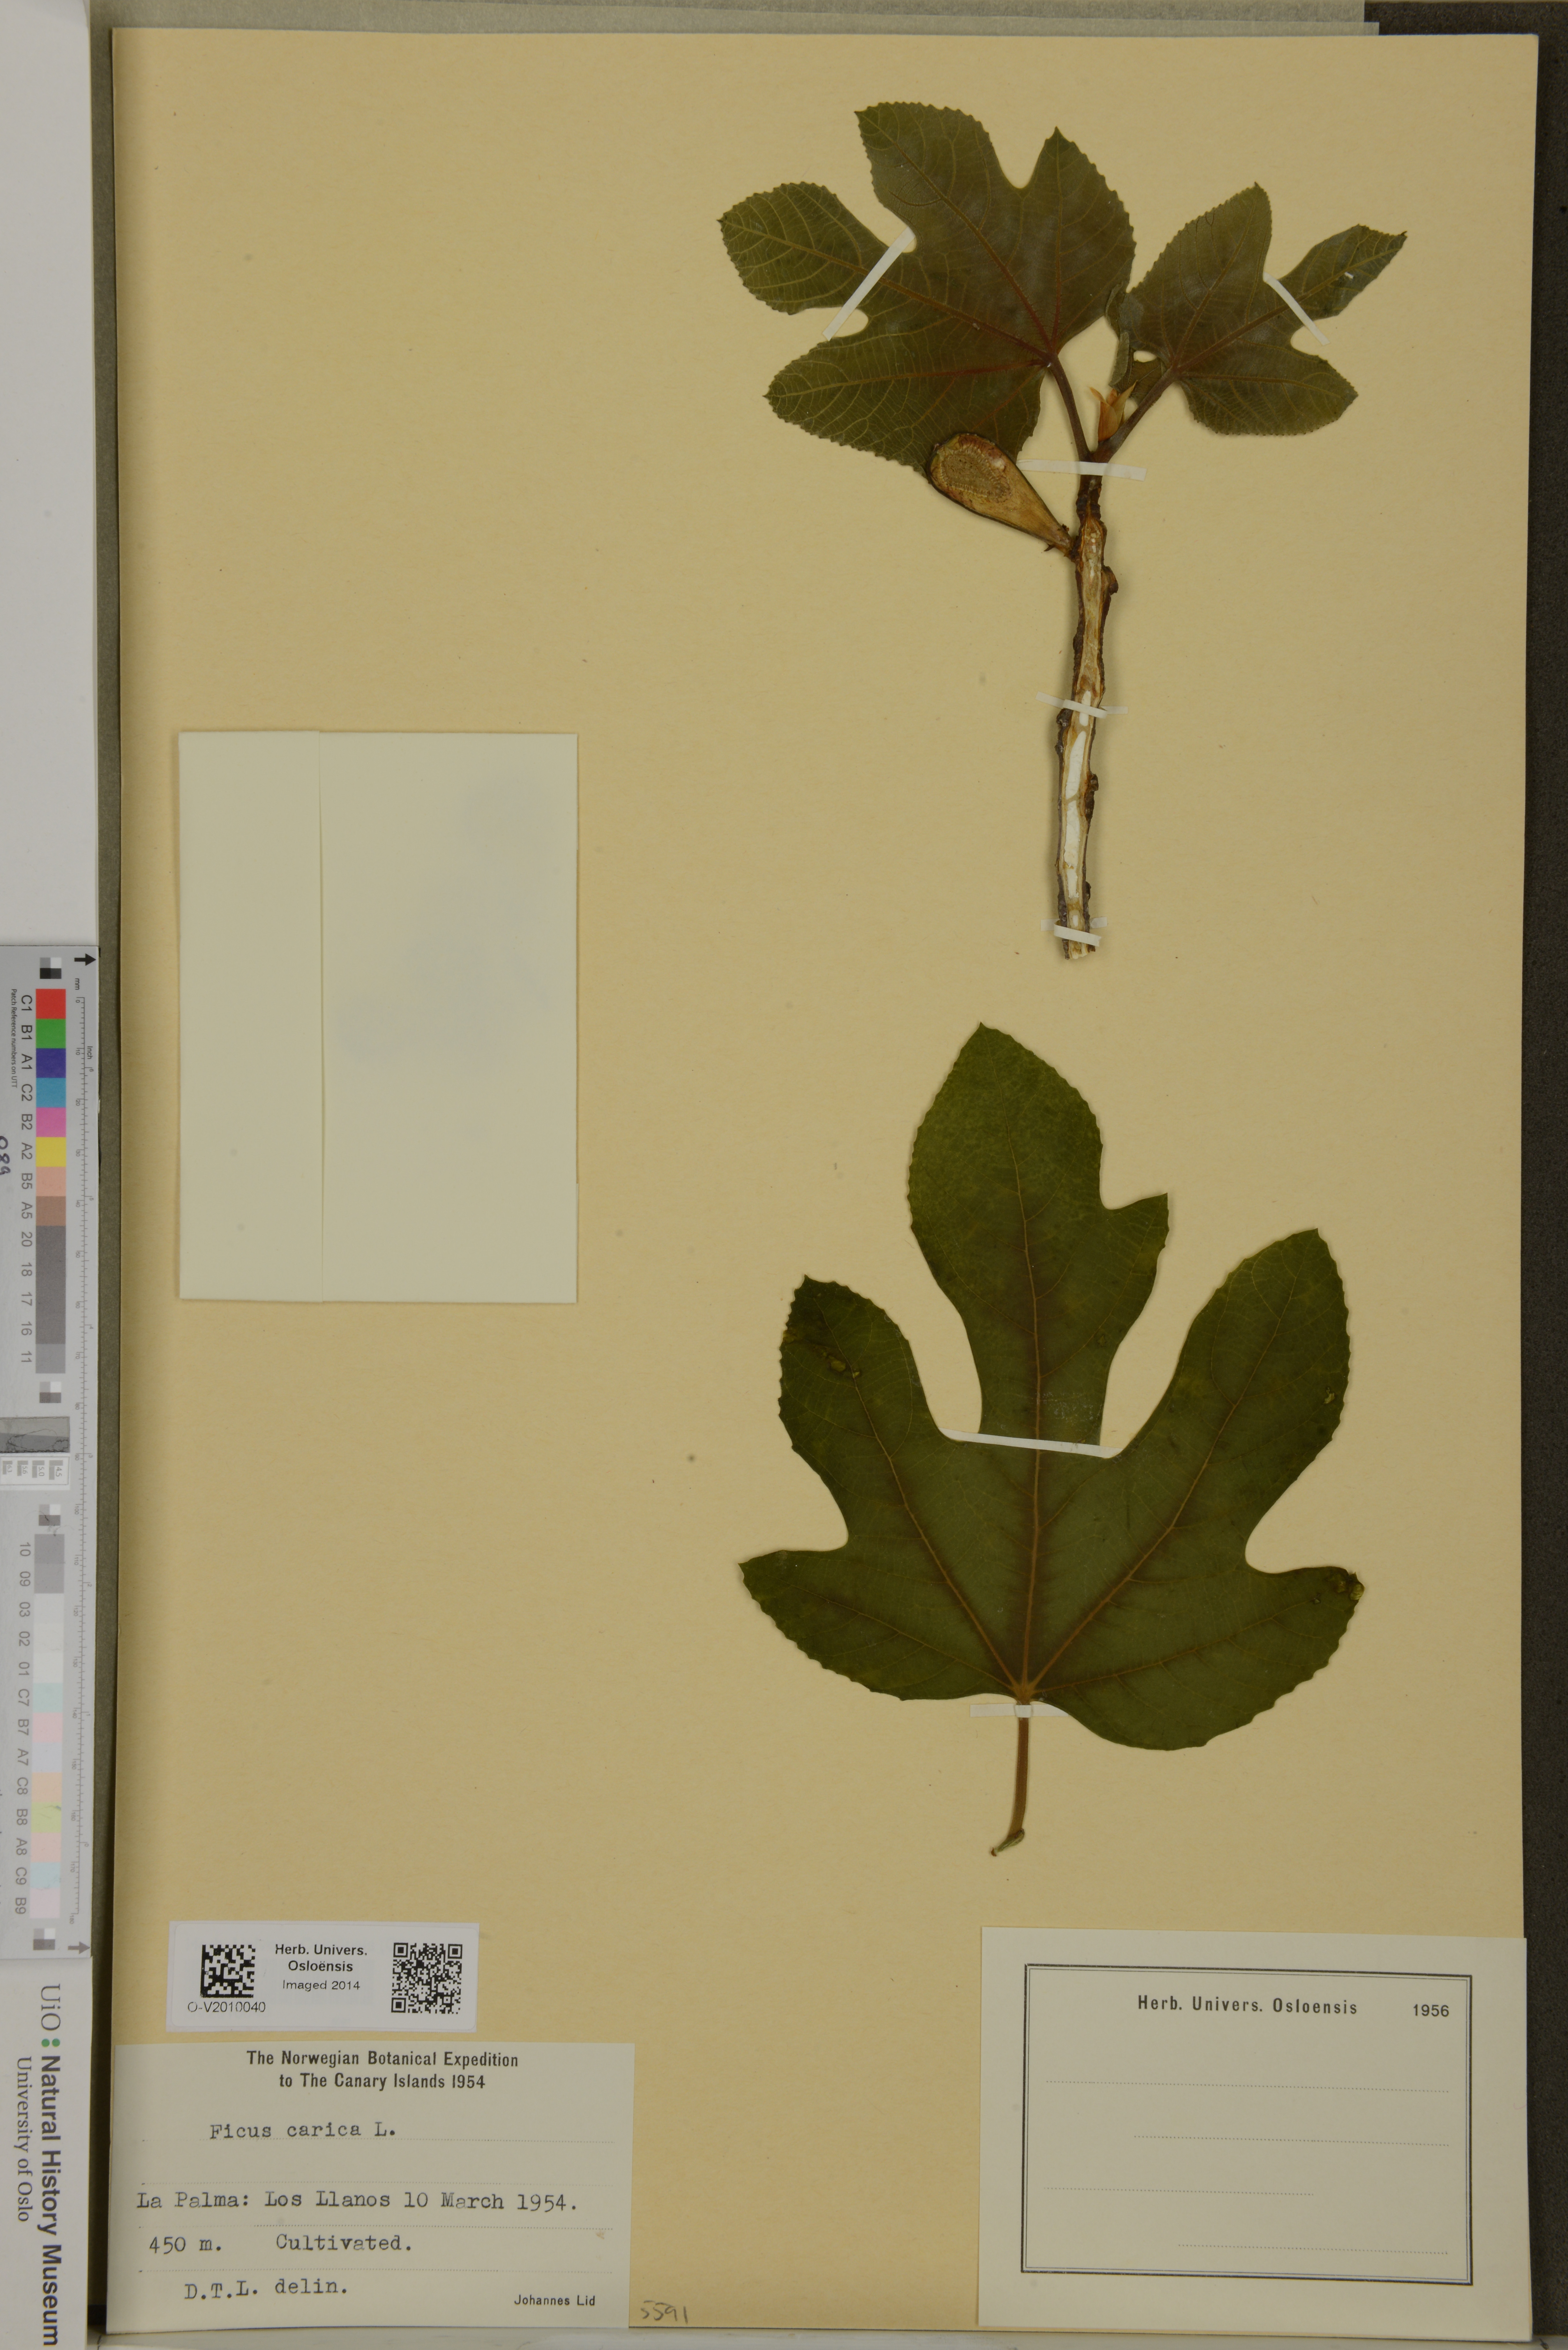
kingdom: Plantae
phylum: Tracheophyta
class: Magnoliopsida
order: Rosales
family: Moraceae
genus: Ficus
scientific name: Ficus carica
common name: Fig
